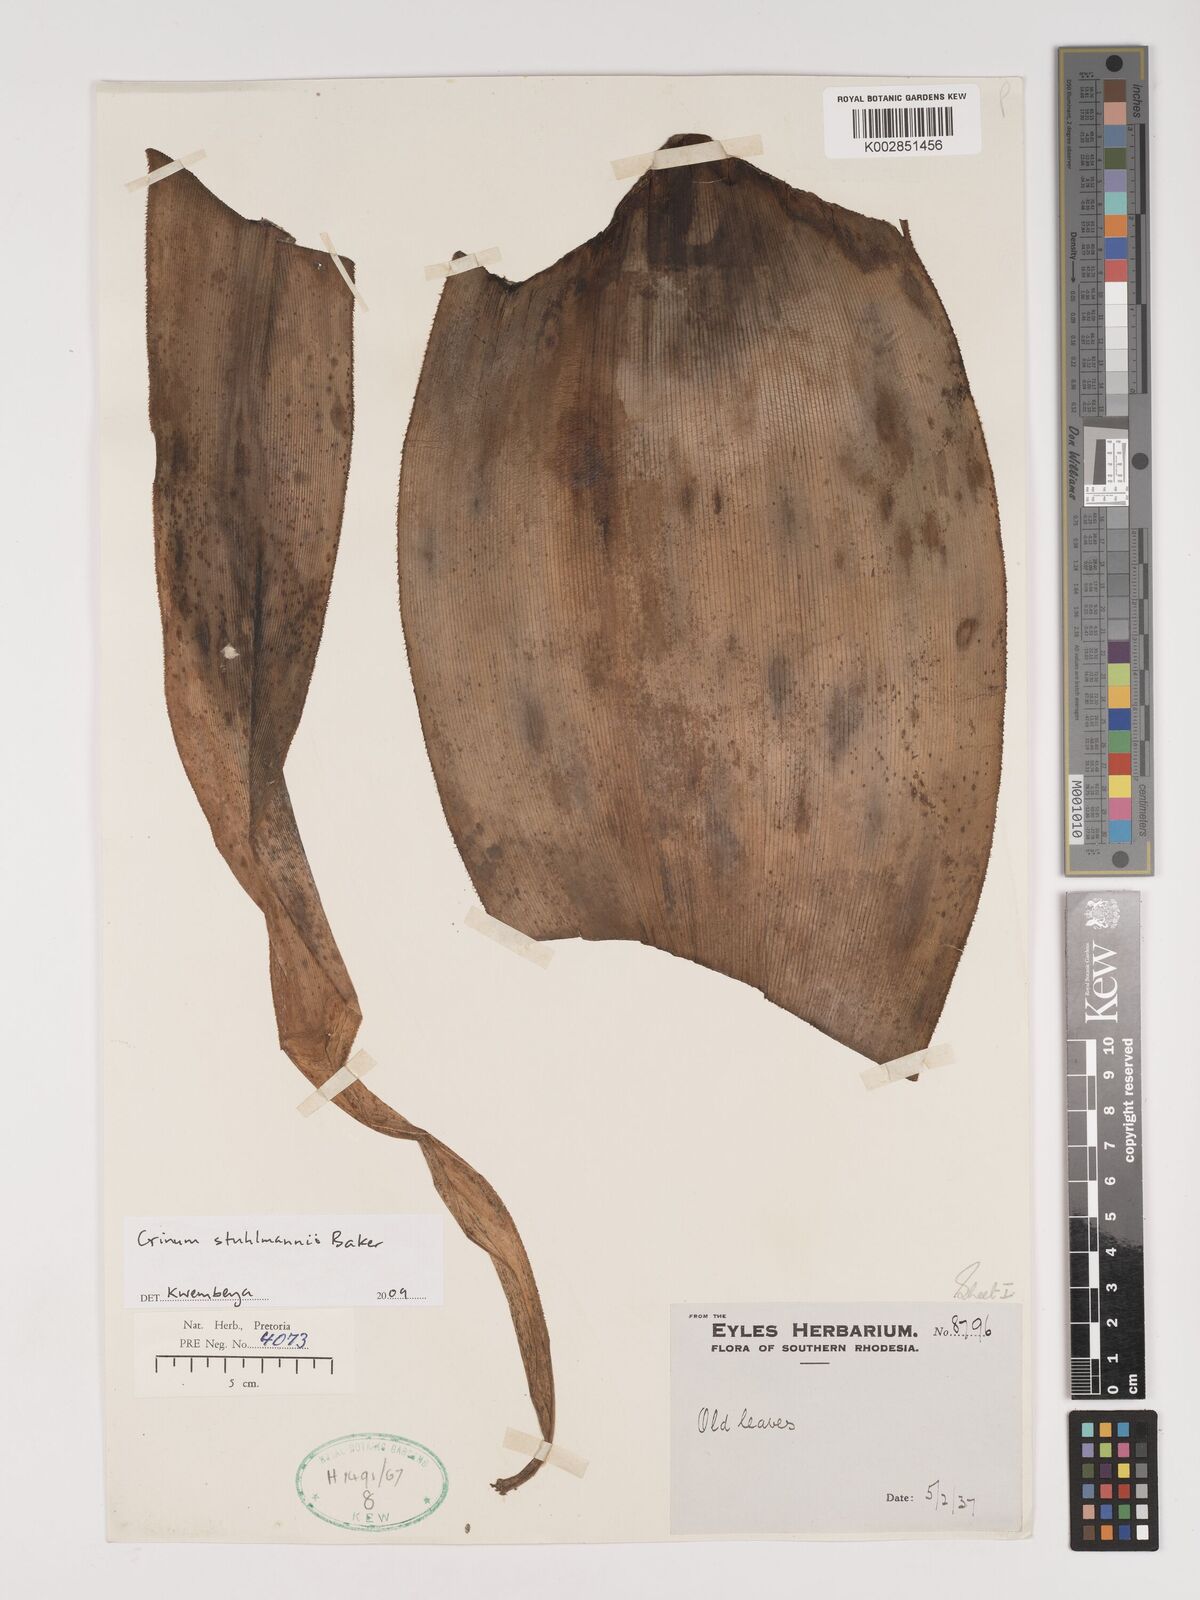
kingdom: Plantae
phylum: Tracheophyta
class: Liliopsida
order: Asparagales
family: Amaryllidaceae
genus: Crinum
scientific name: Crinum stuhlmannii
